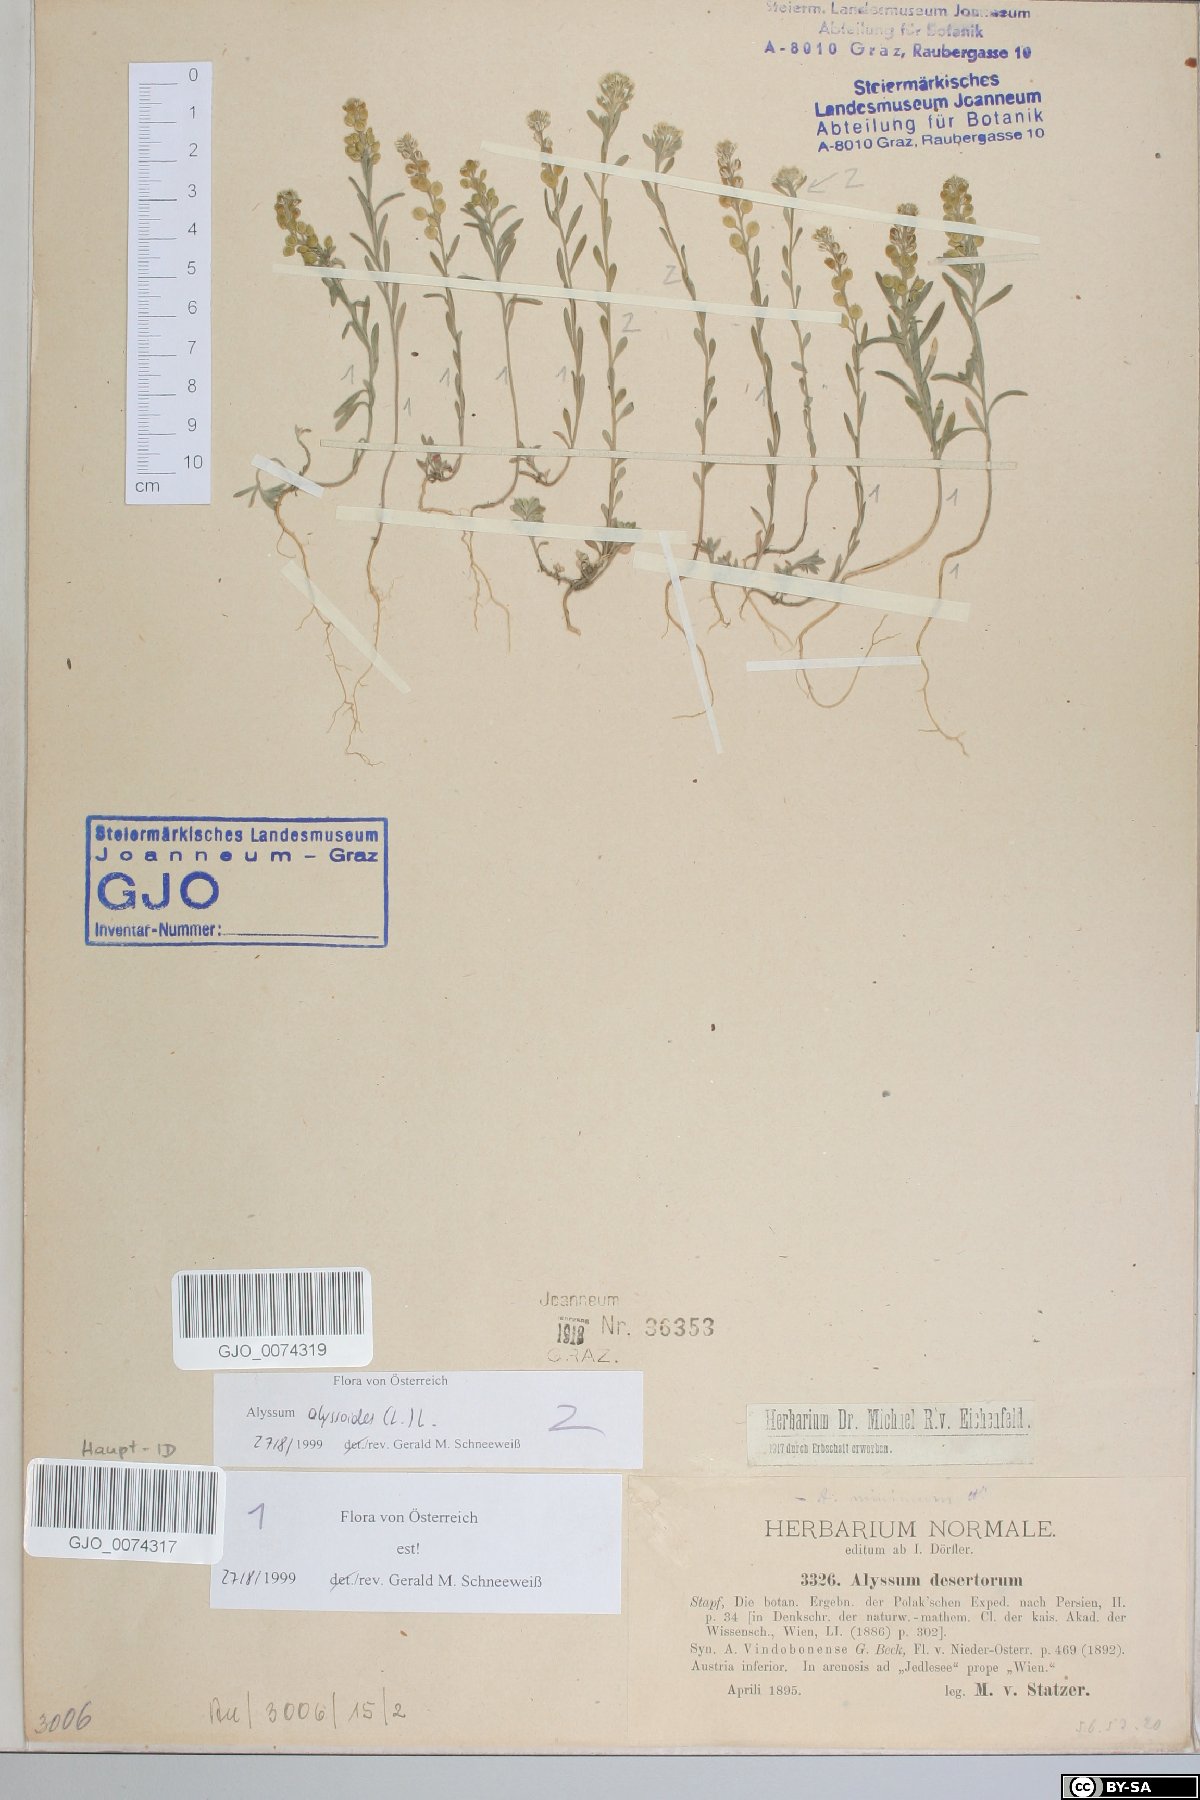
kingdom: Plantae
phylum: Tracheophyta
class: Magnoliopsida
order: Brassicales
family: Brassicaceae
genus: Alyssum
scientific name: Alyssum alyssoides
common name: Small alison
